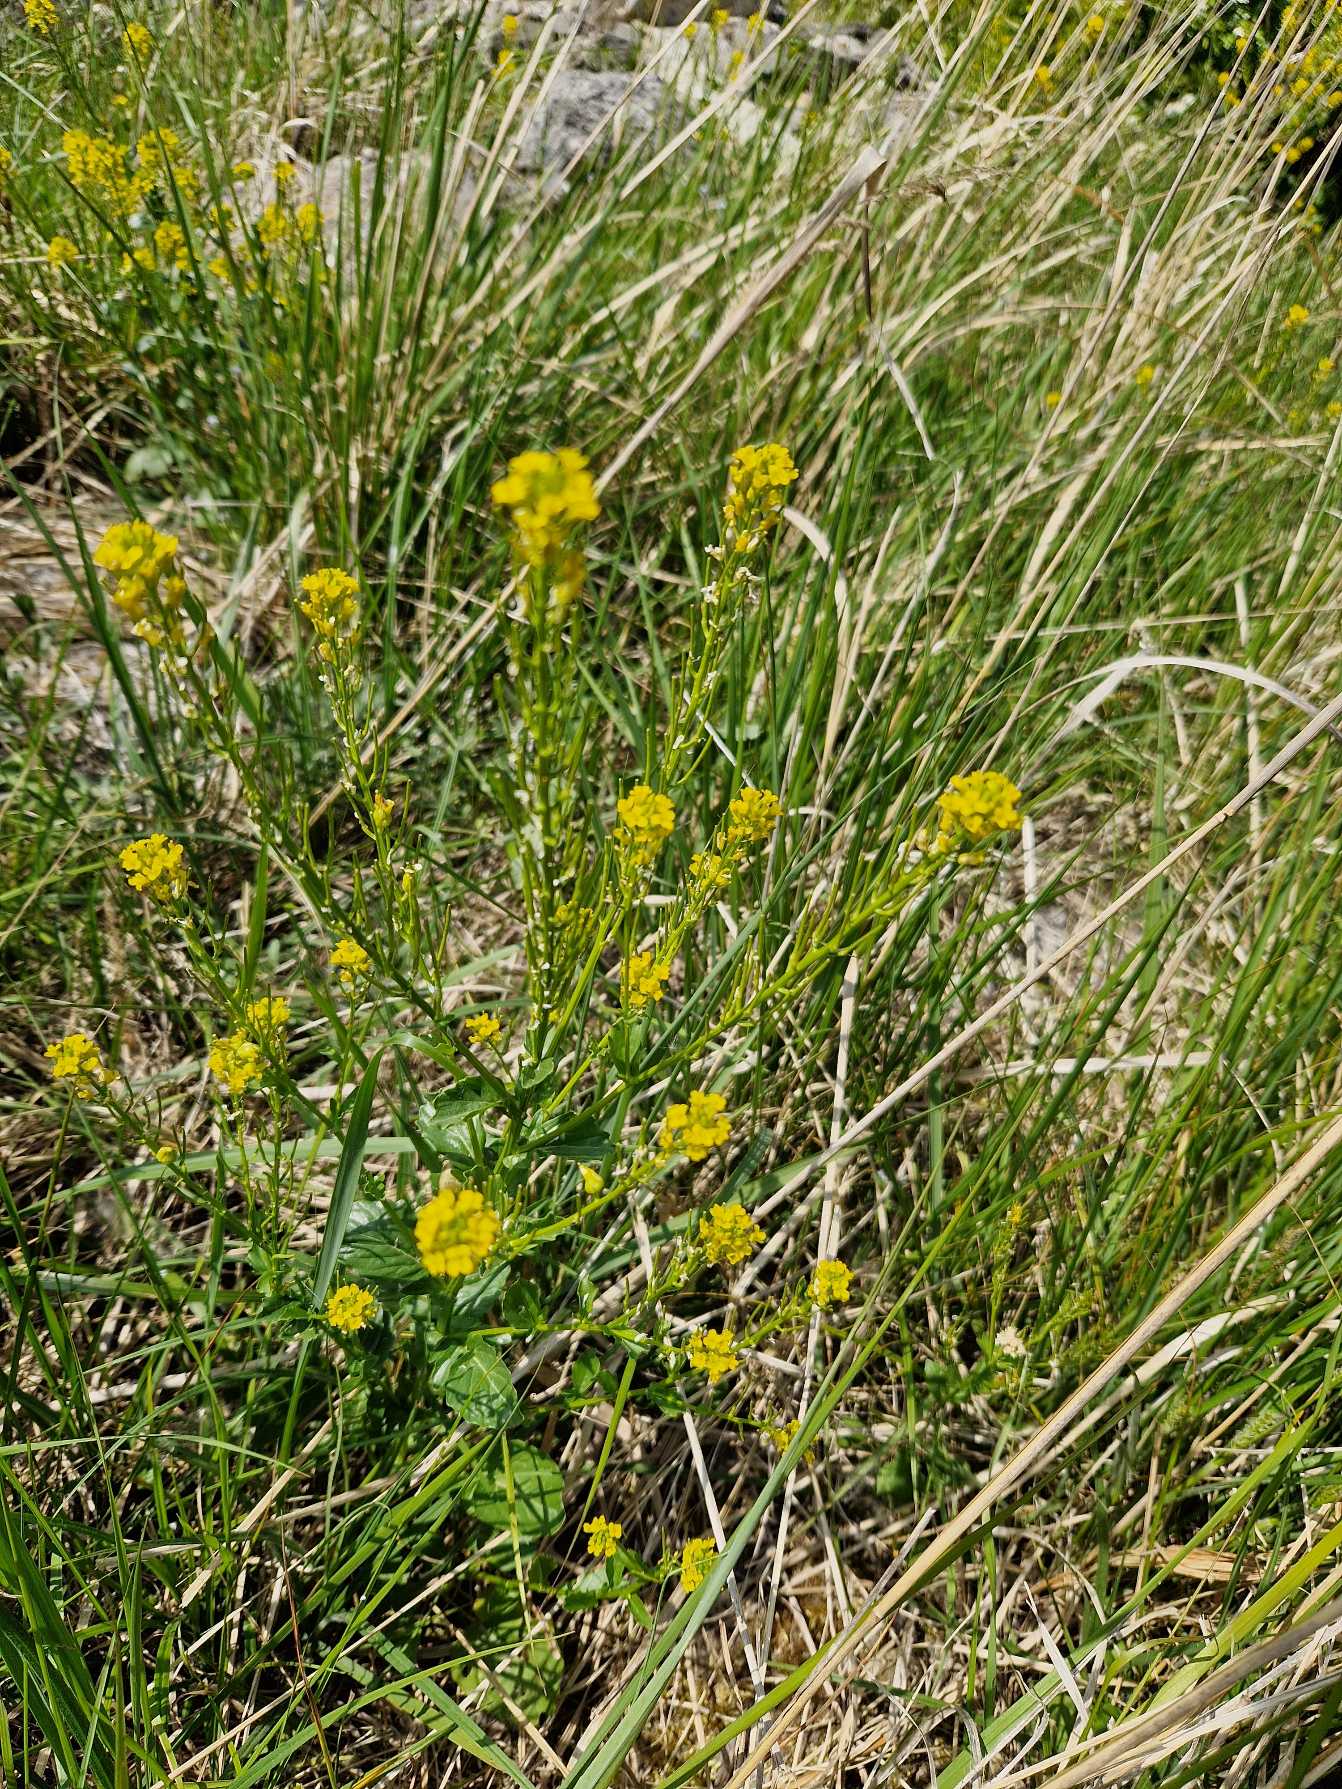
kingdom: Plantae
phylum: Tracheophyta
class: Magnoliopsida
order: Brassicales
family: Brassicaceae
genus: Barbarea
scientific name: Barbarea vulgaris
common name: Almindelig vinterkarse
